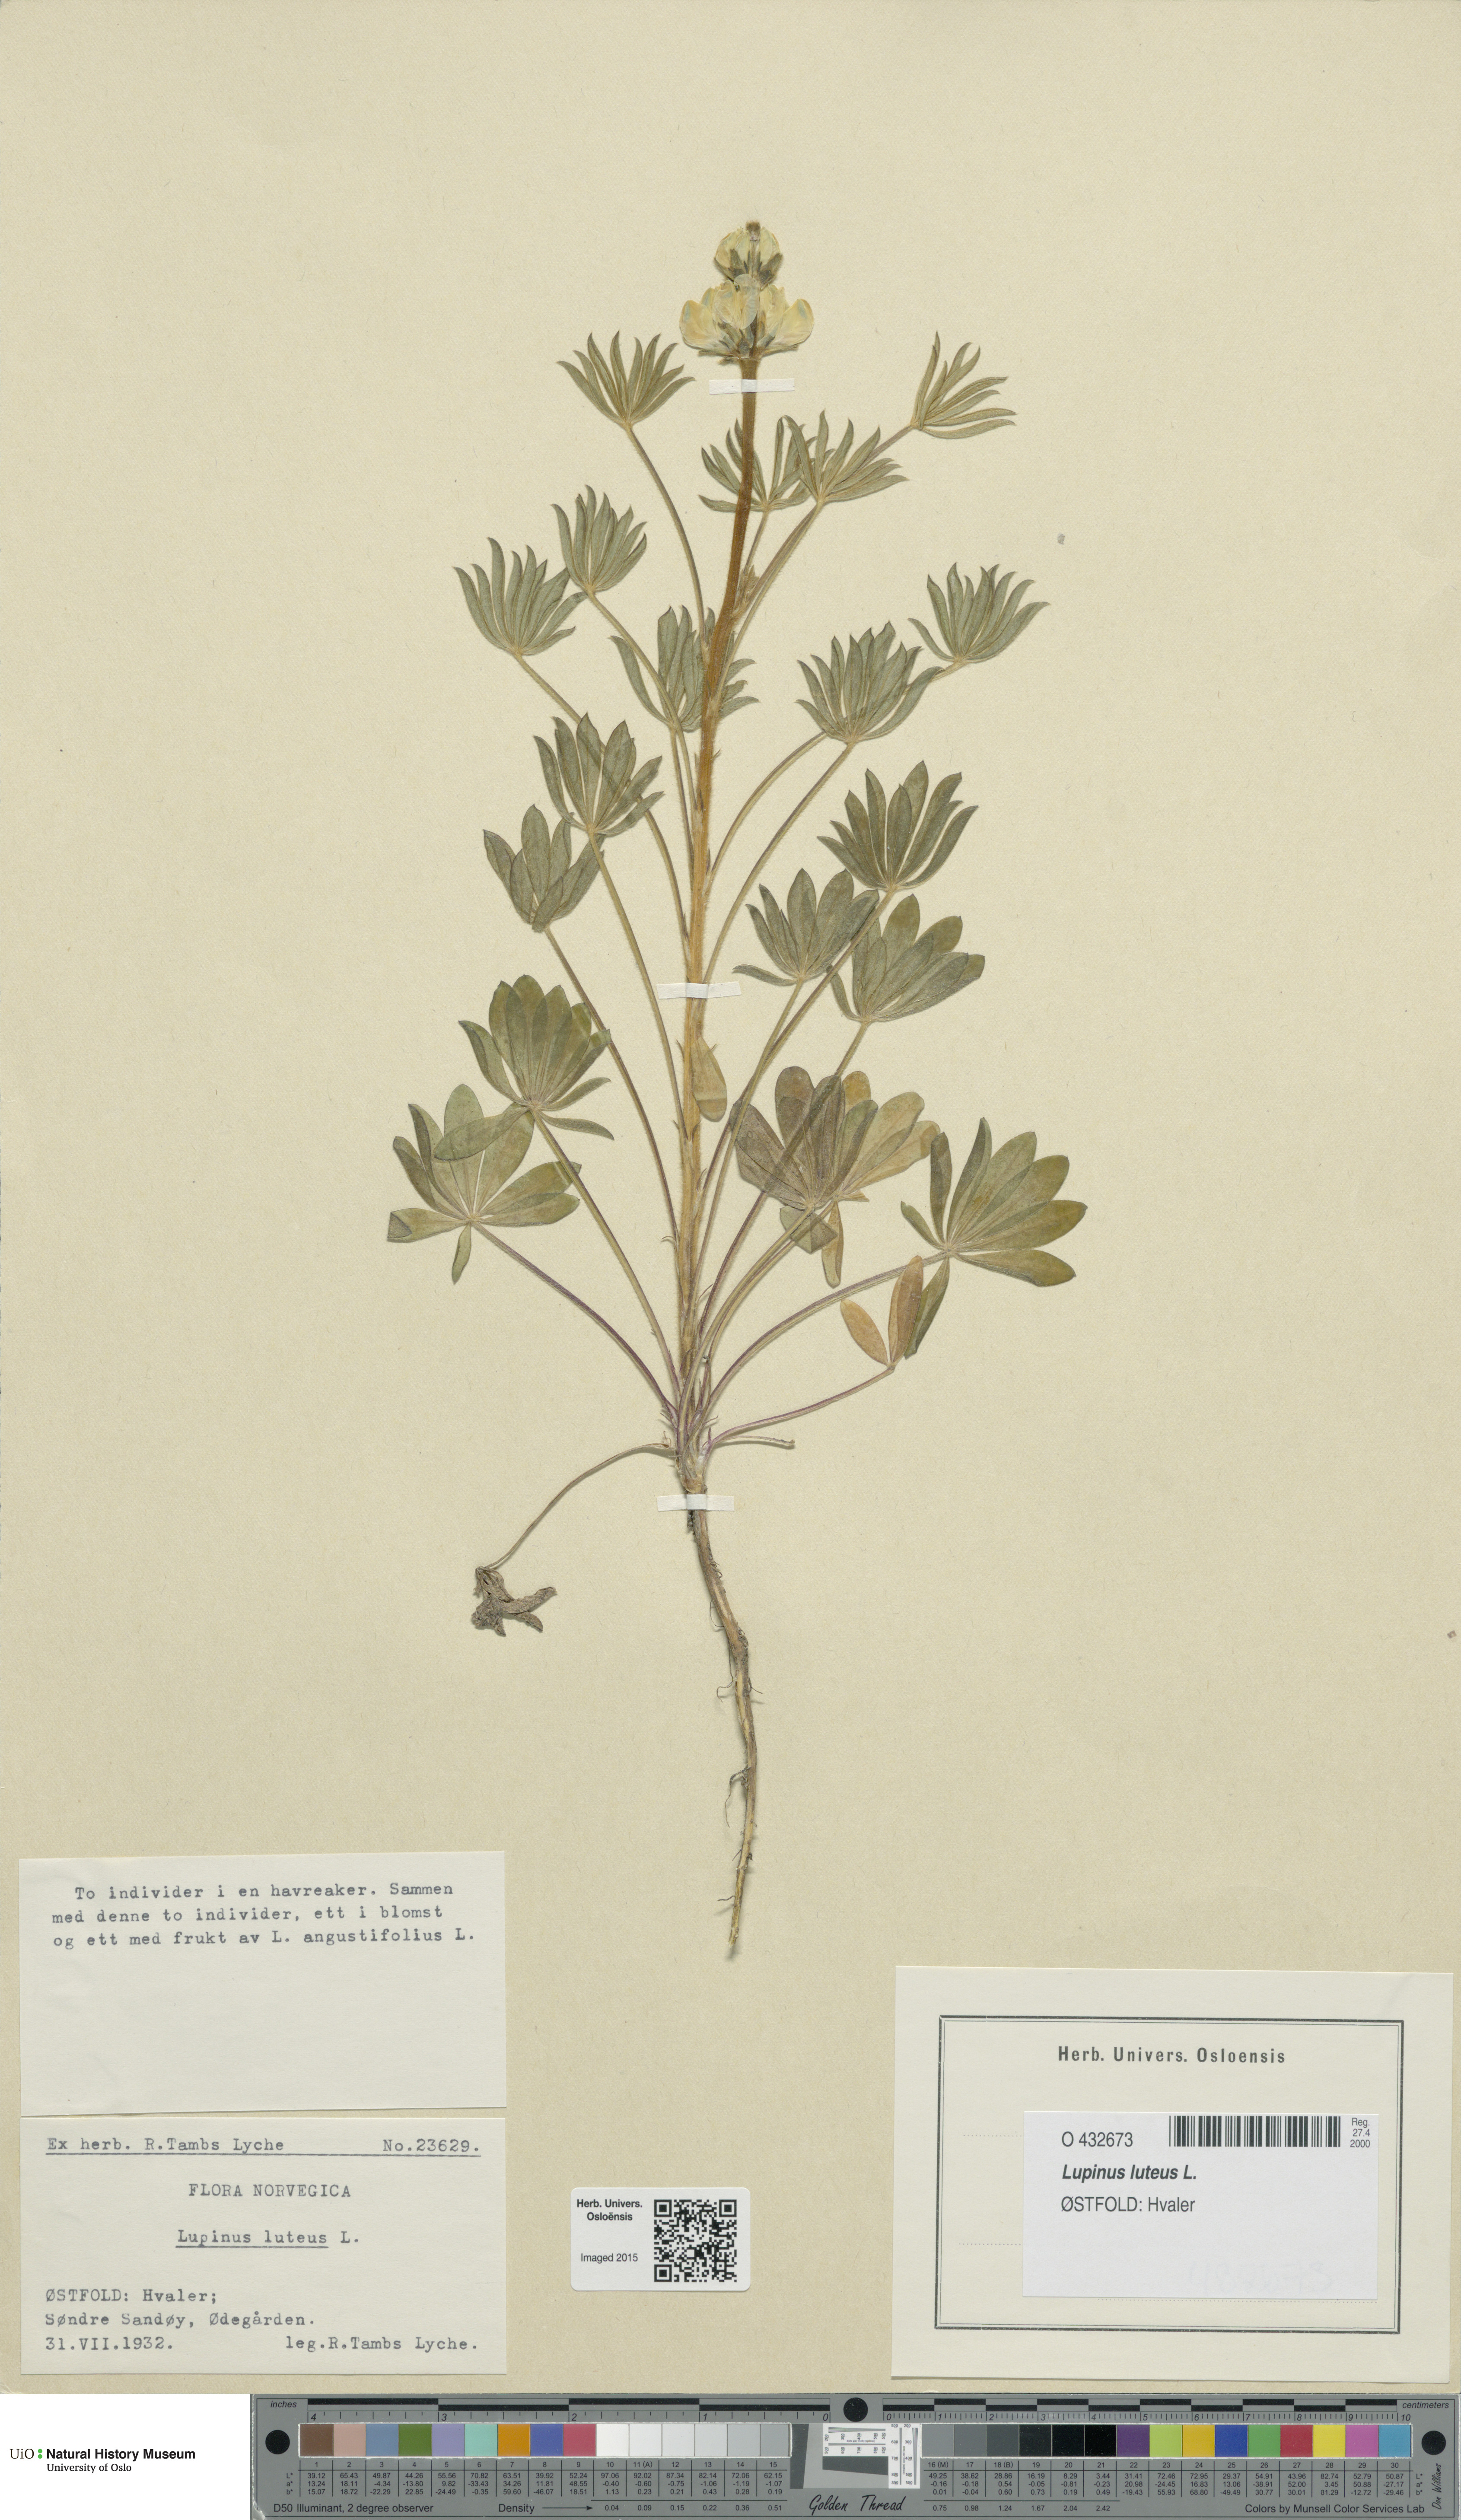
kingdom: Plantae
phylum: Tracheophyta
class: Magnoliopsida
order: Fabales
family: Fabaceae
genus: Lupinus
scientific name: Lupinus luteus
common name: European yellow lupine
